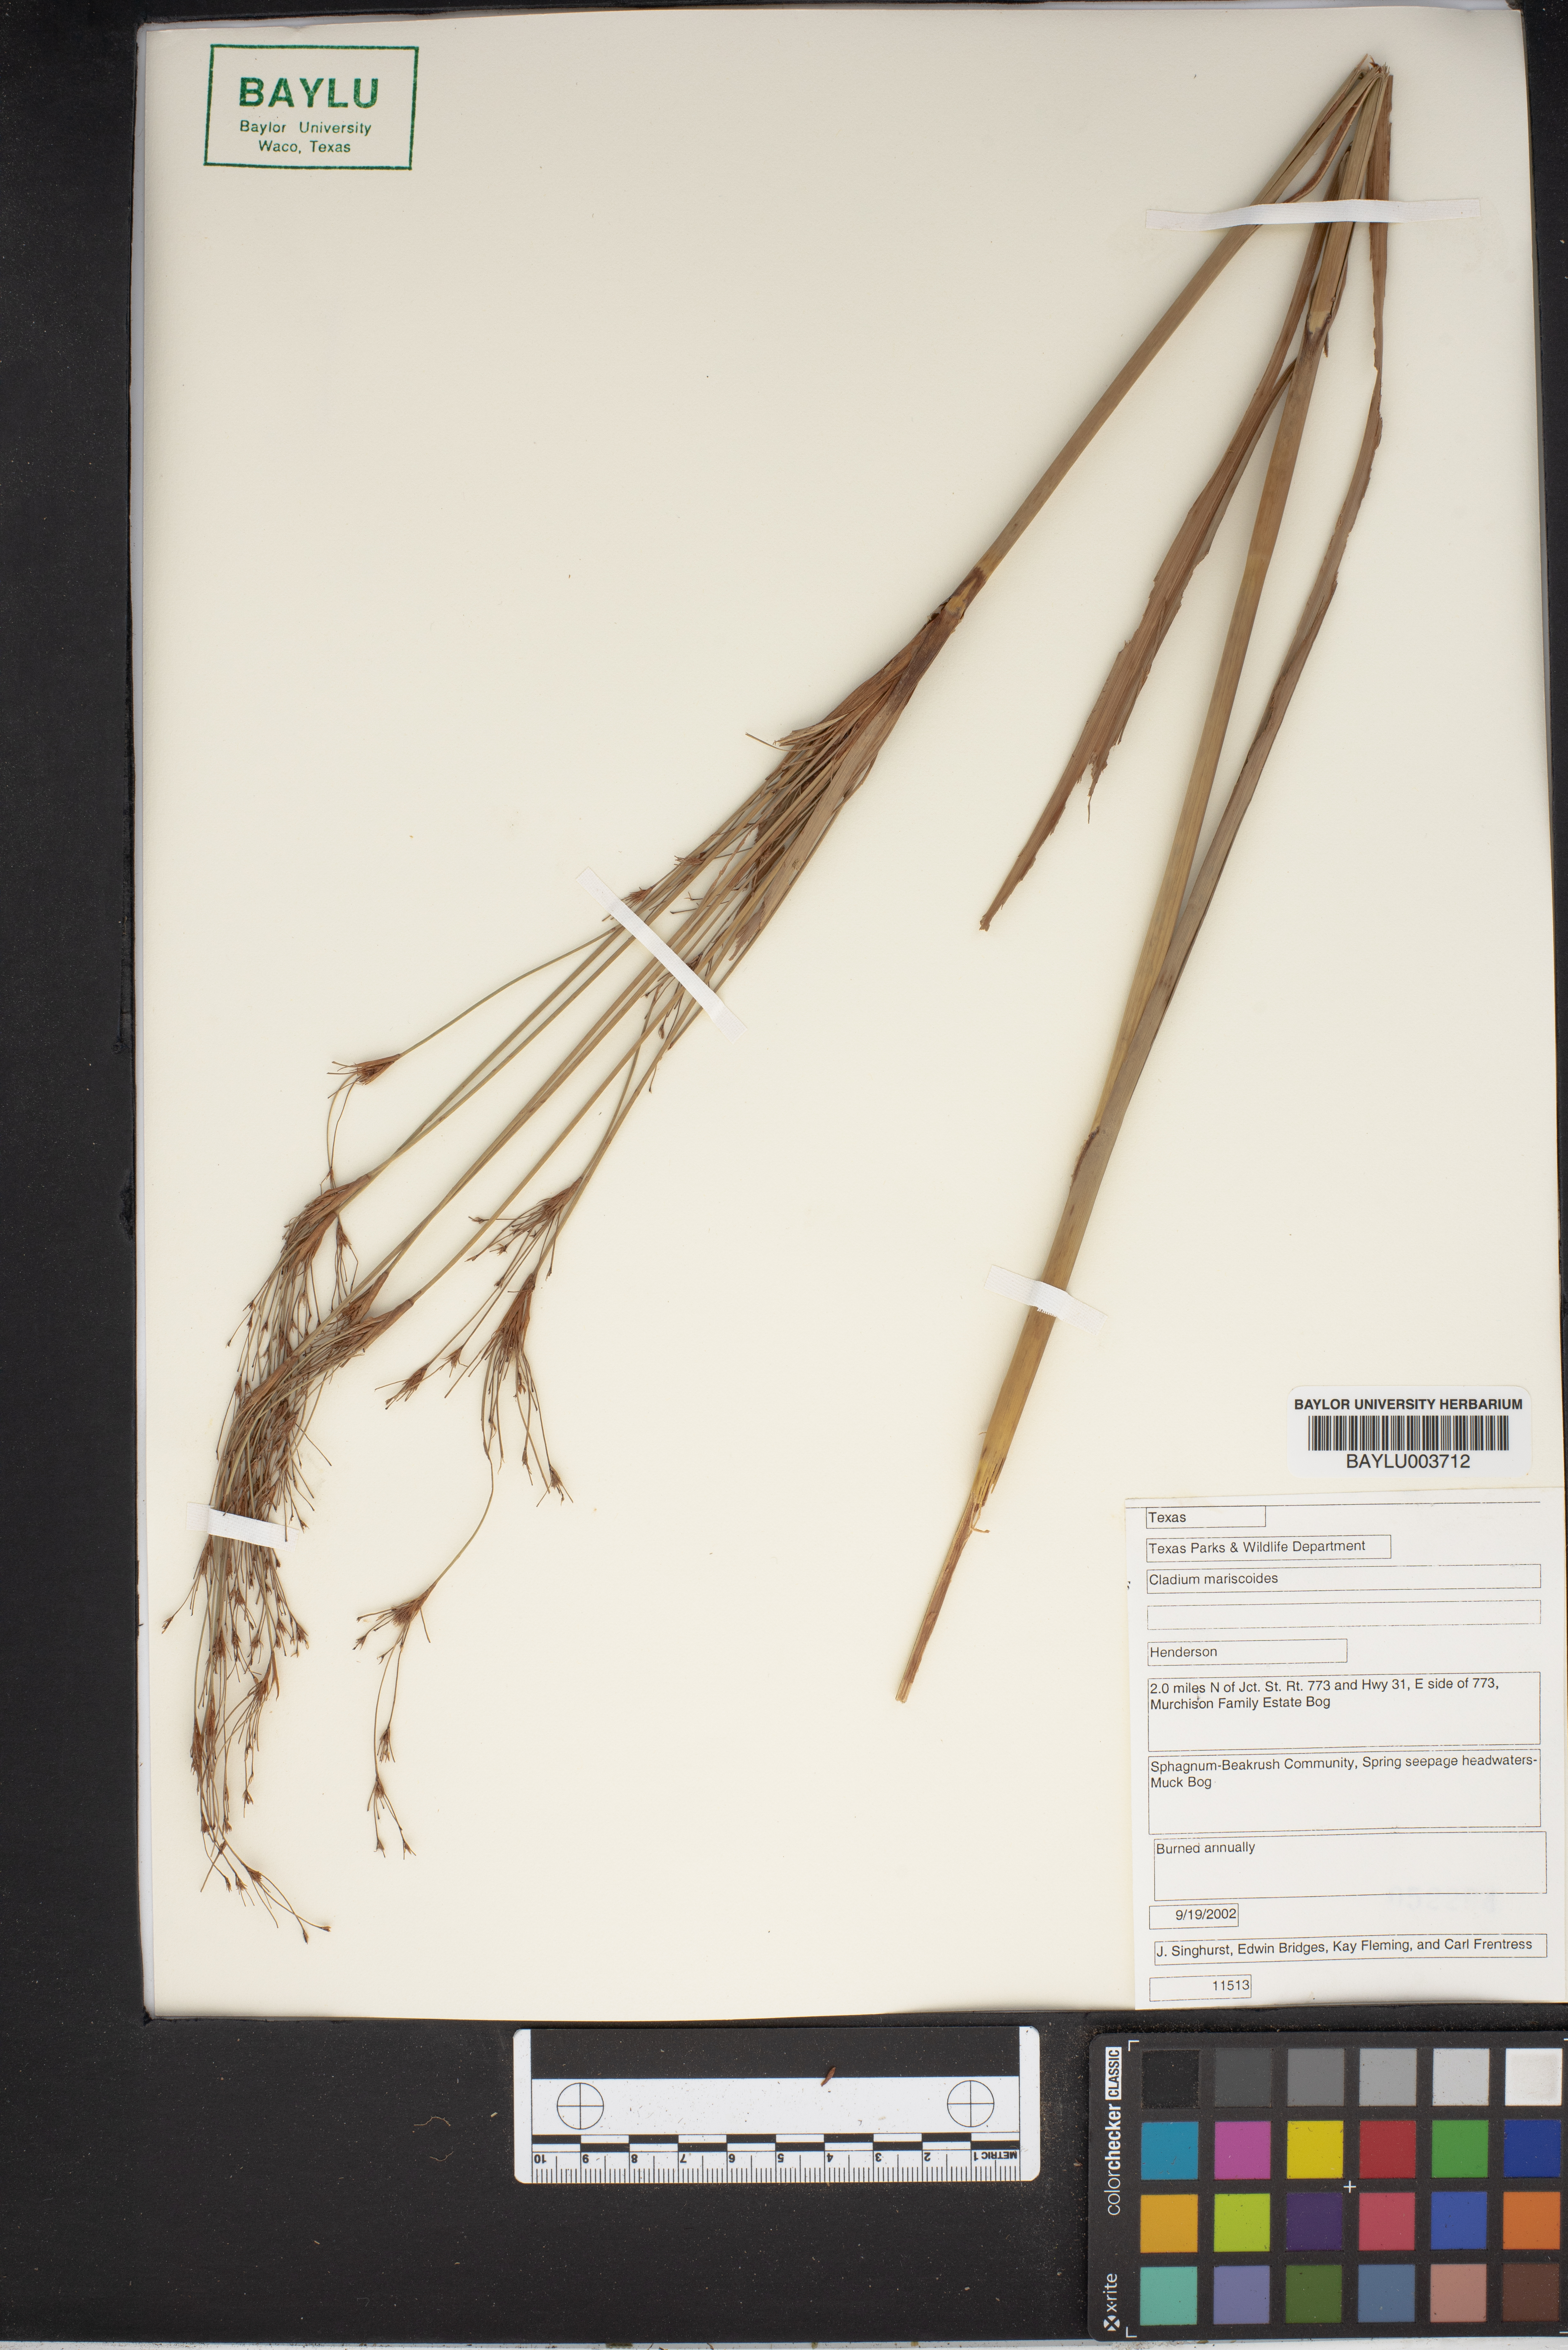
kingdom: Plantae
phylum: Tracheophyta
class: Liliopsida
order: Poales
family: Cyperaceae
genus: Cladium
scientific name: Cladium mariscoides
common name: Smooth sawgrass
